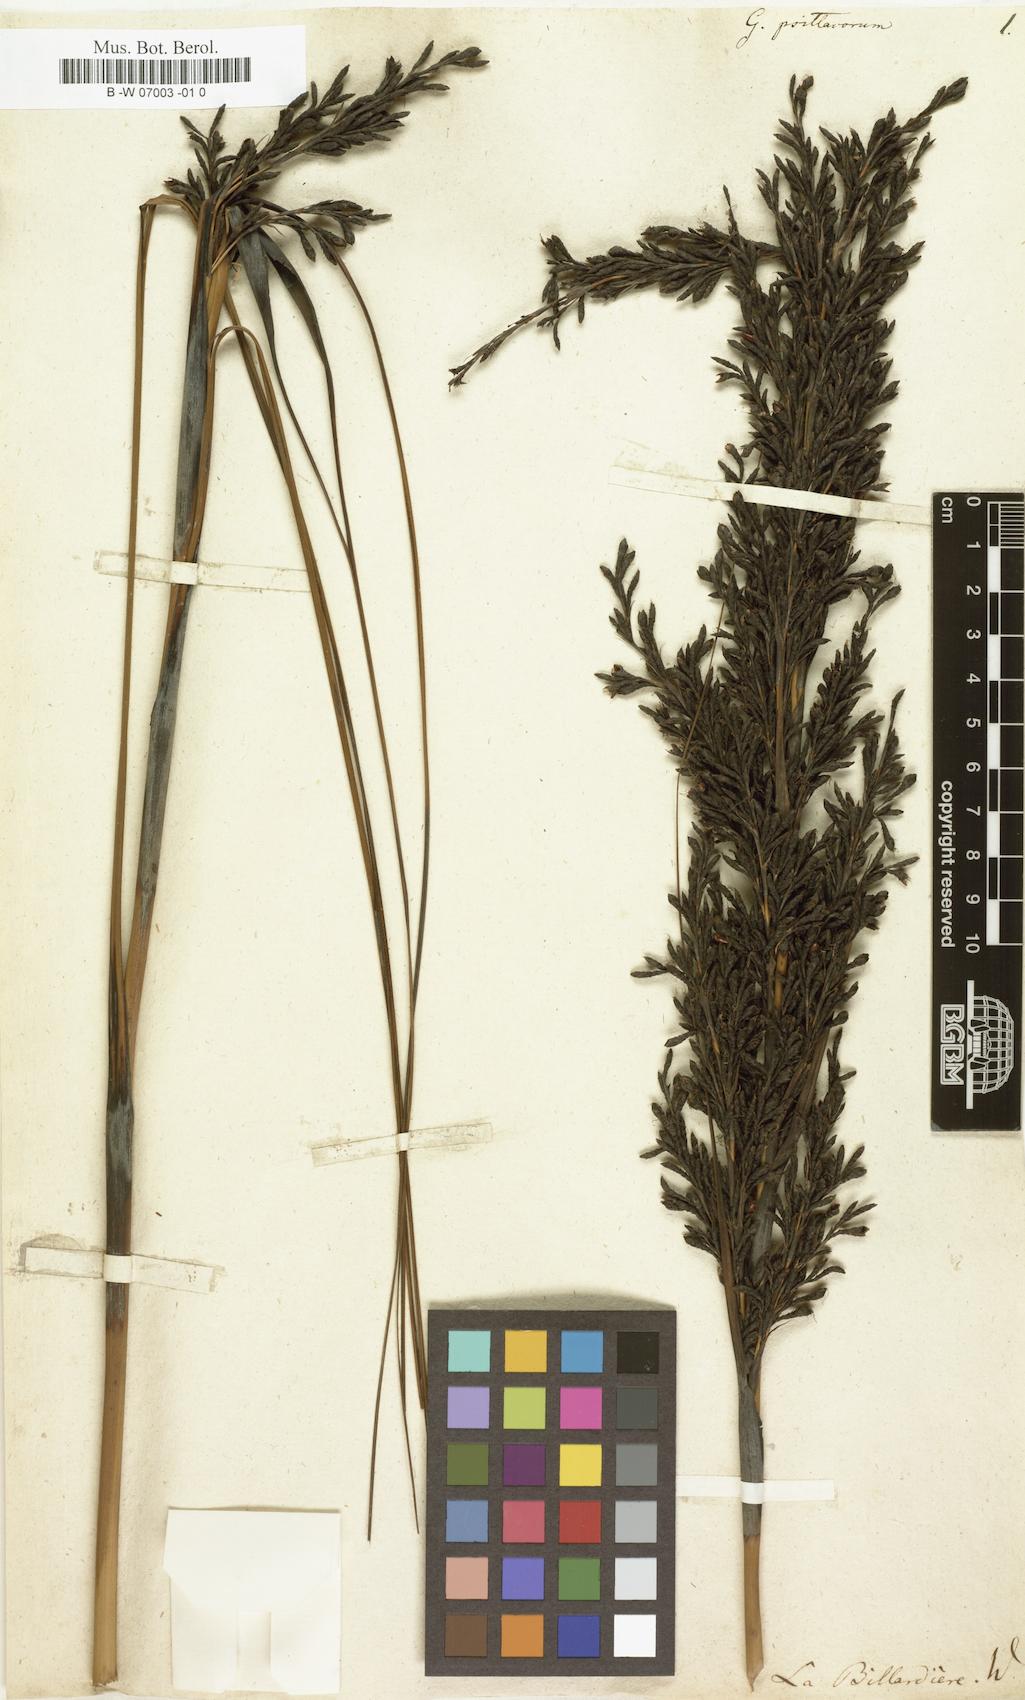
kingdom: Plantae
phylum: Tracheophyta
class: Liliopsida
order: Poales
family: Cyperaceae
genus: Gahnia
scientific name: Gahnia grandis
